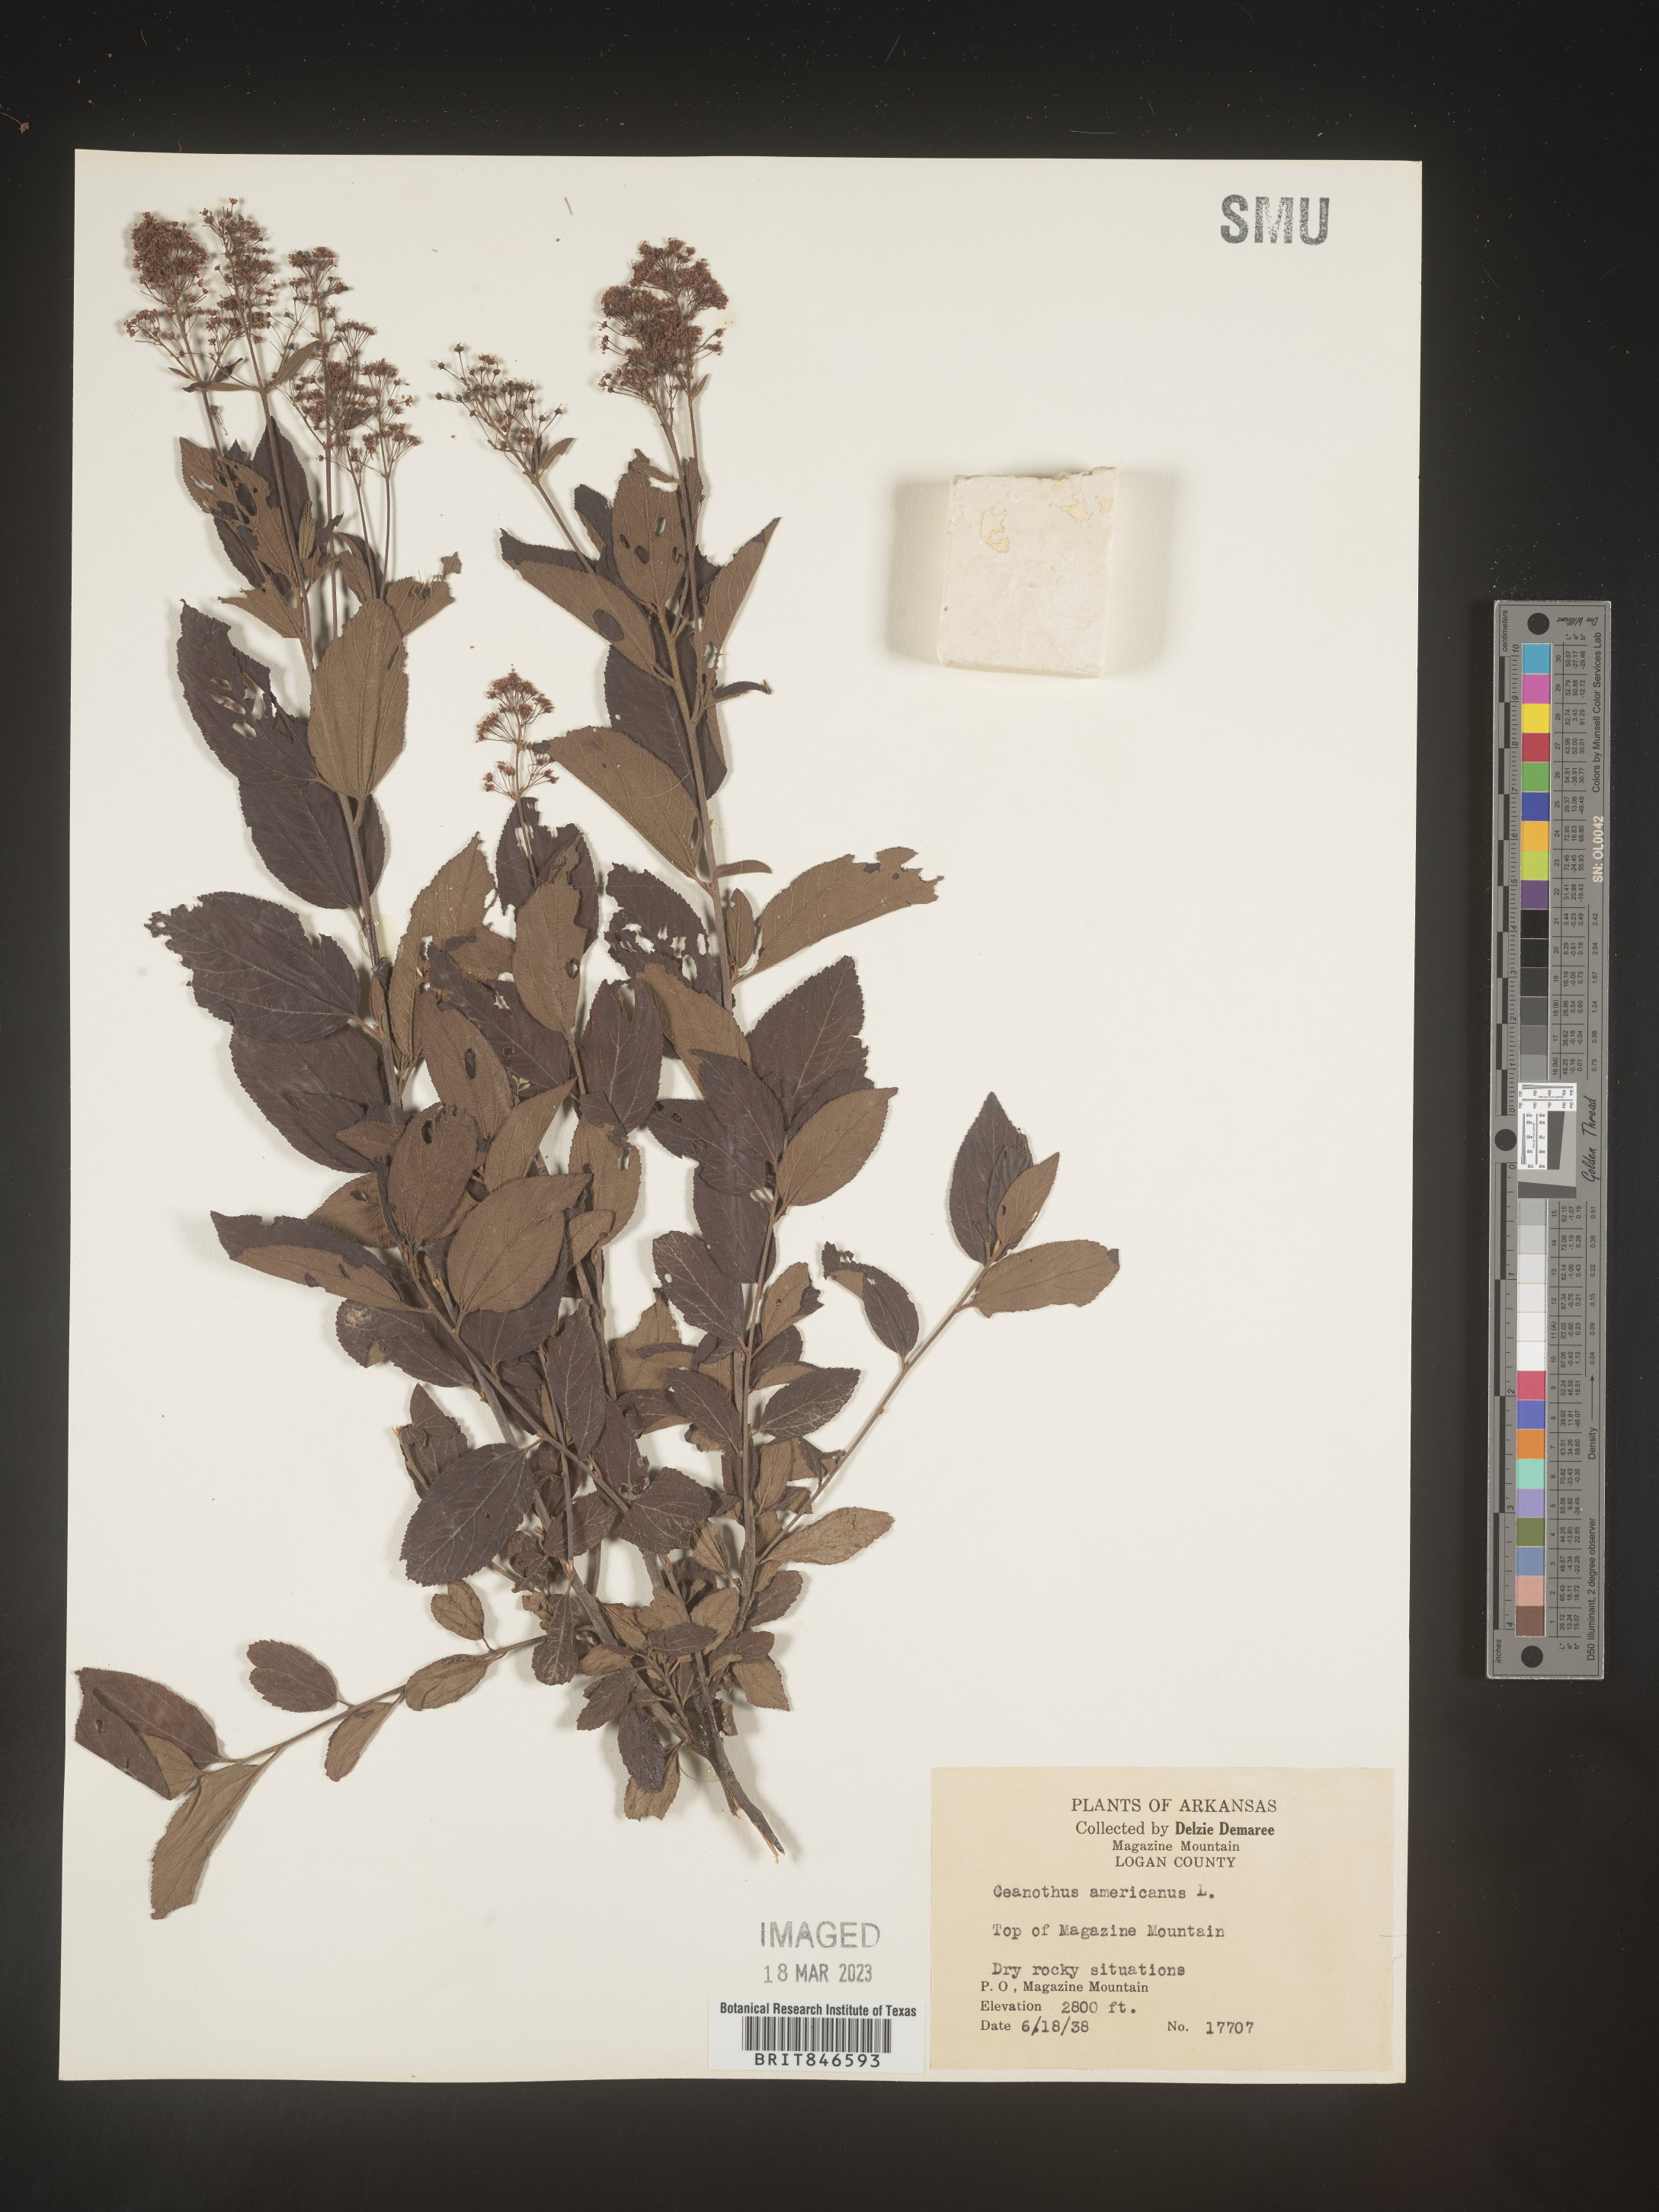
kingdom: Plantae
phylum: Tracheophyta
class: Magnoliopsida
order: Rosales
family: Rhamnaceae
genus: Ceanothus
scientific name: Ceanothus americanus
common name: Redroot
